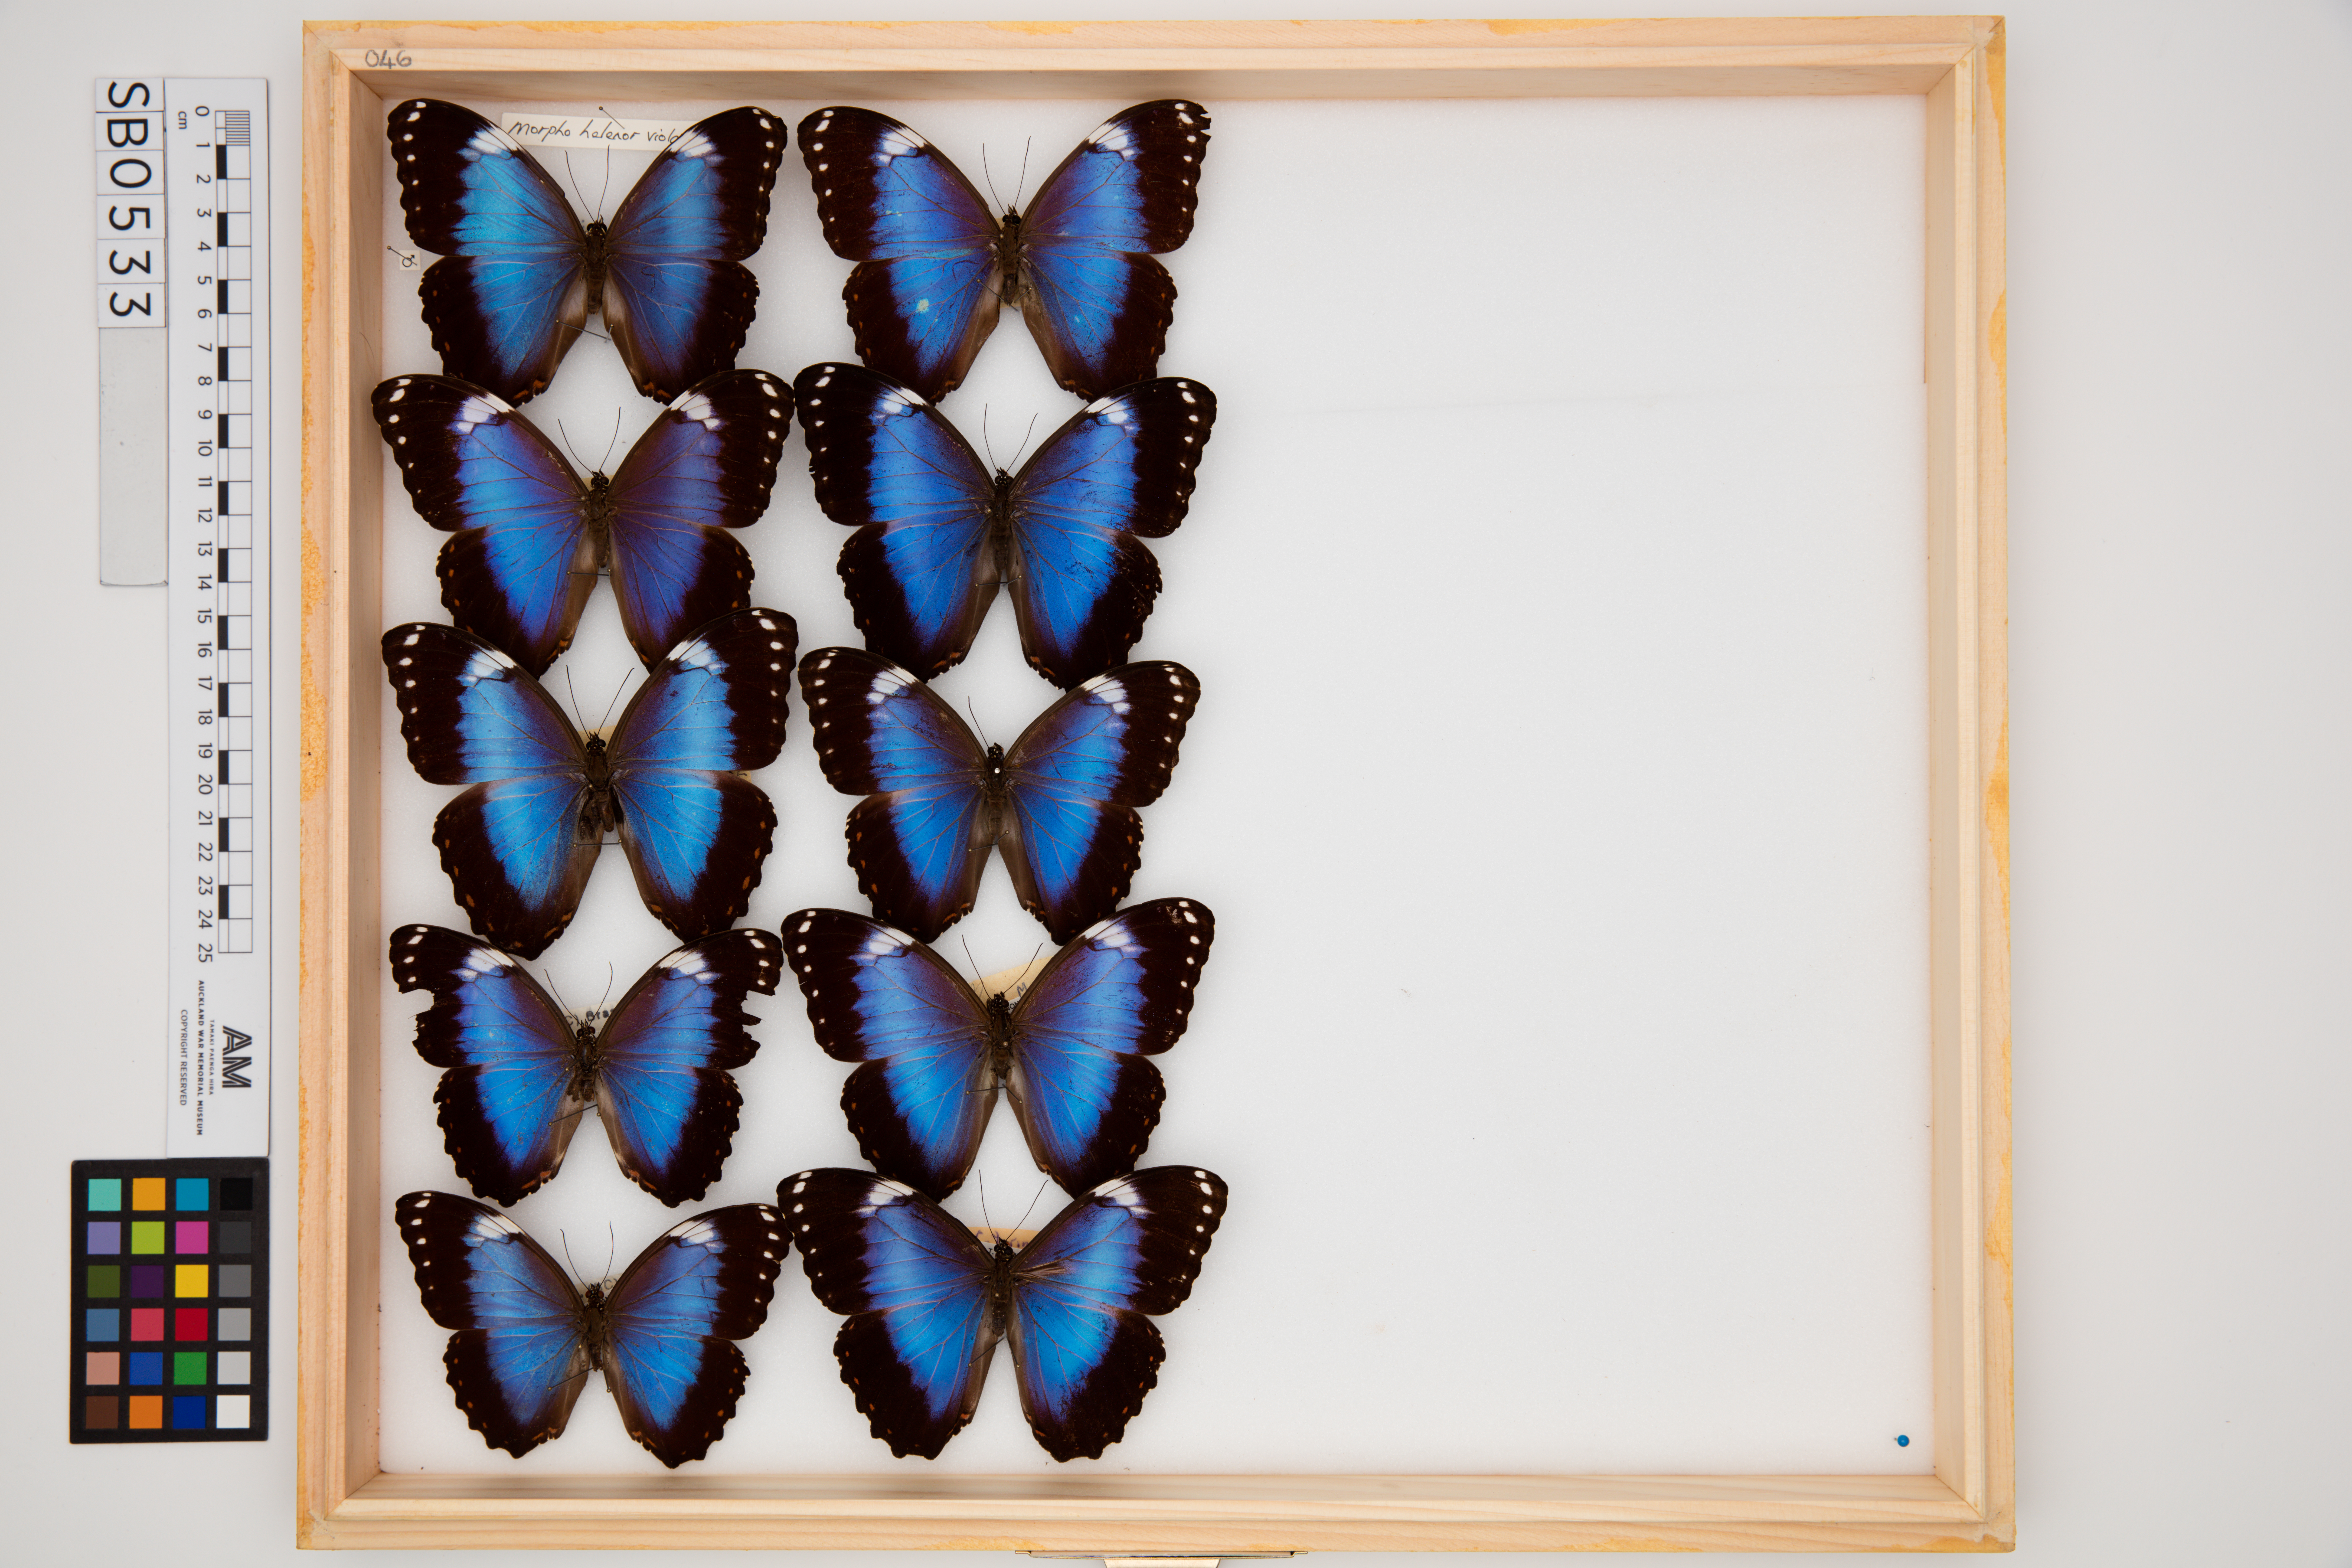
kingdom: Animalia
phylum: Arthropoda
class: Insecta
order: Lepidoptera
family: Nymphalidae
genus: Morpho
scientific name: Morpho helenor
